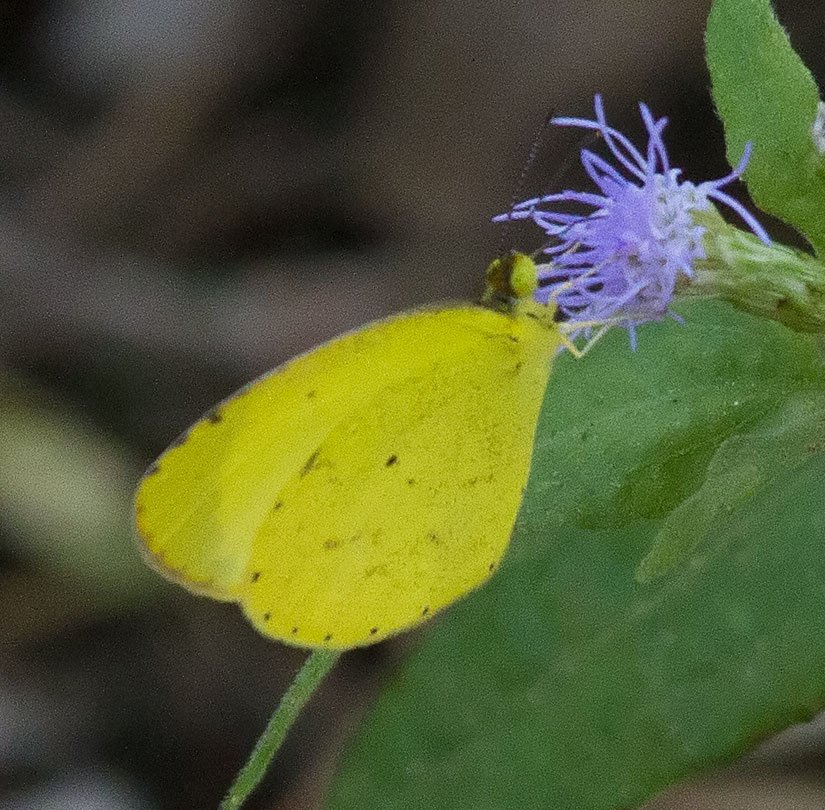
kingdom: Animalia
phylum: Arthropoda
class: Insecta
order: Lepidoptera
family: Pieridae
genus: Pyrisitia
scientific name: Pyrisitia nise
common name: Mimosa Yellow
